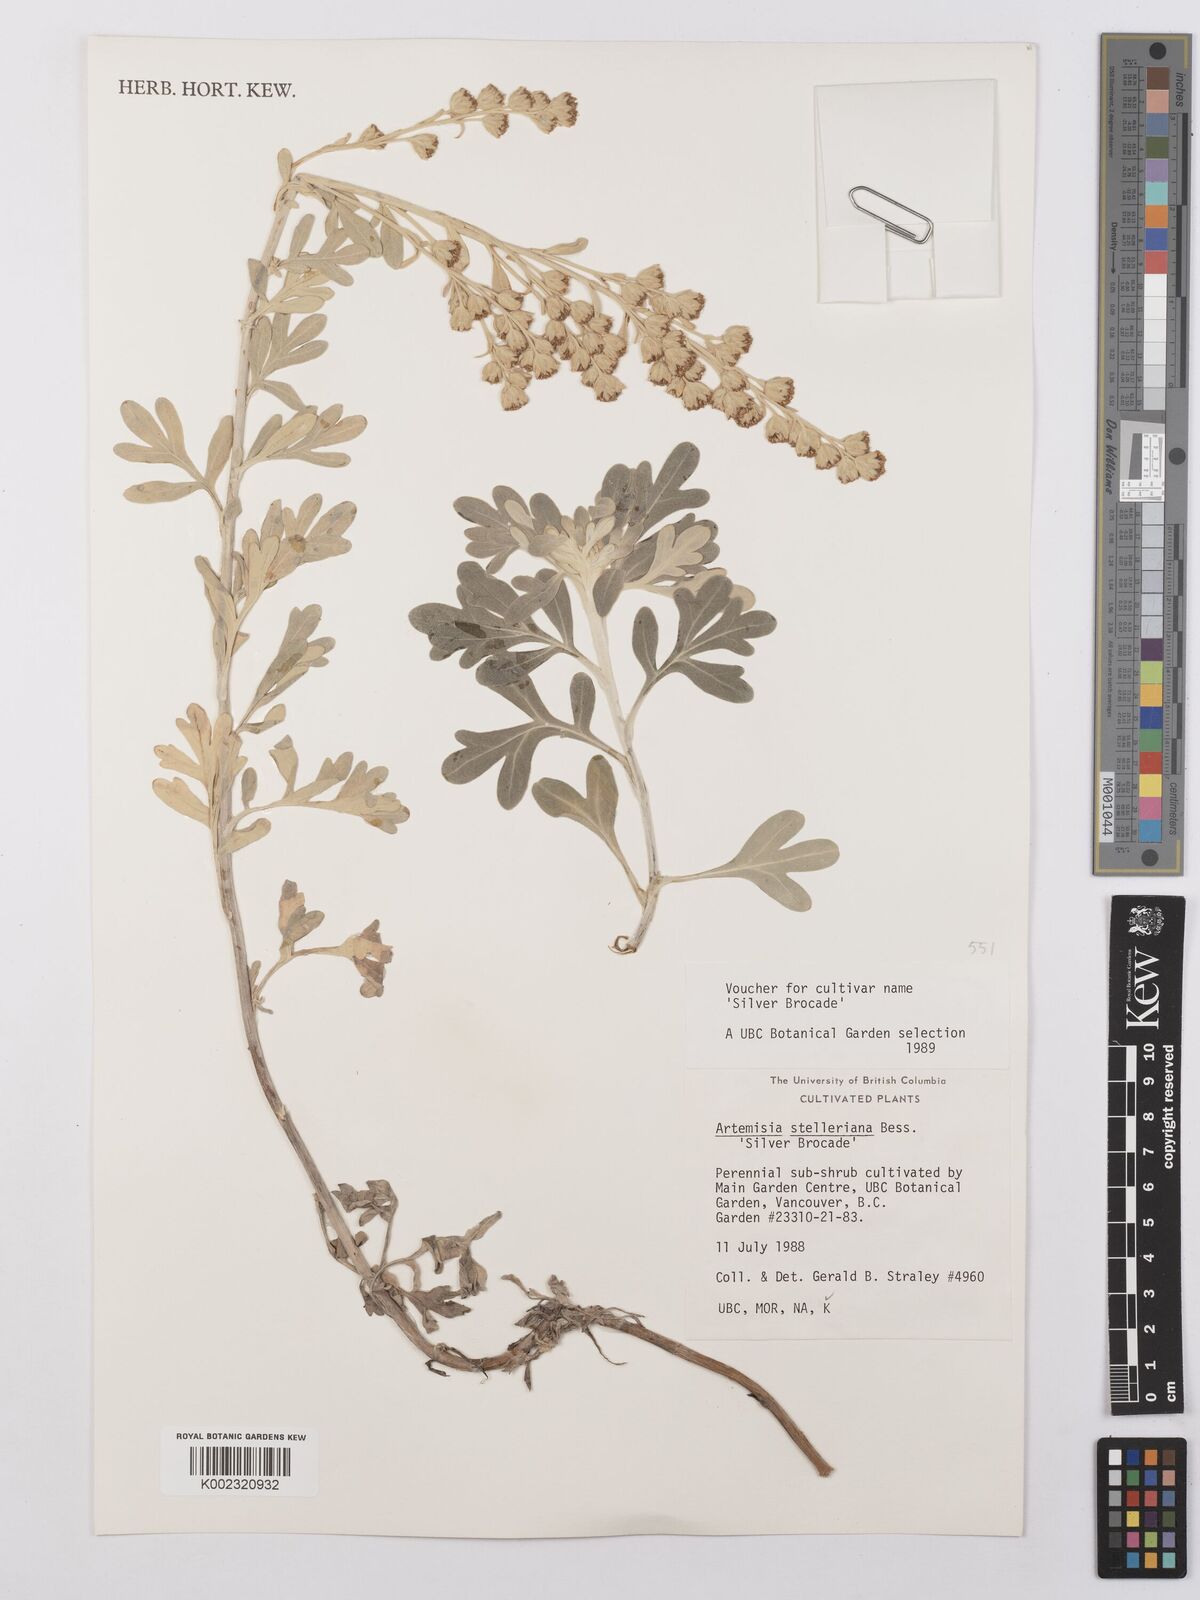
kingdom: Plantae
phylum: Tracheophyta
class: Magnoliopsida
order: Asterales
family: Asteraceae
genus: Artemisia
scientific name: Artemisia stelleriana
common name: Beach wormwood
